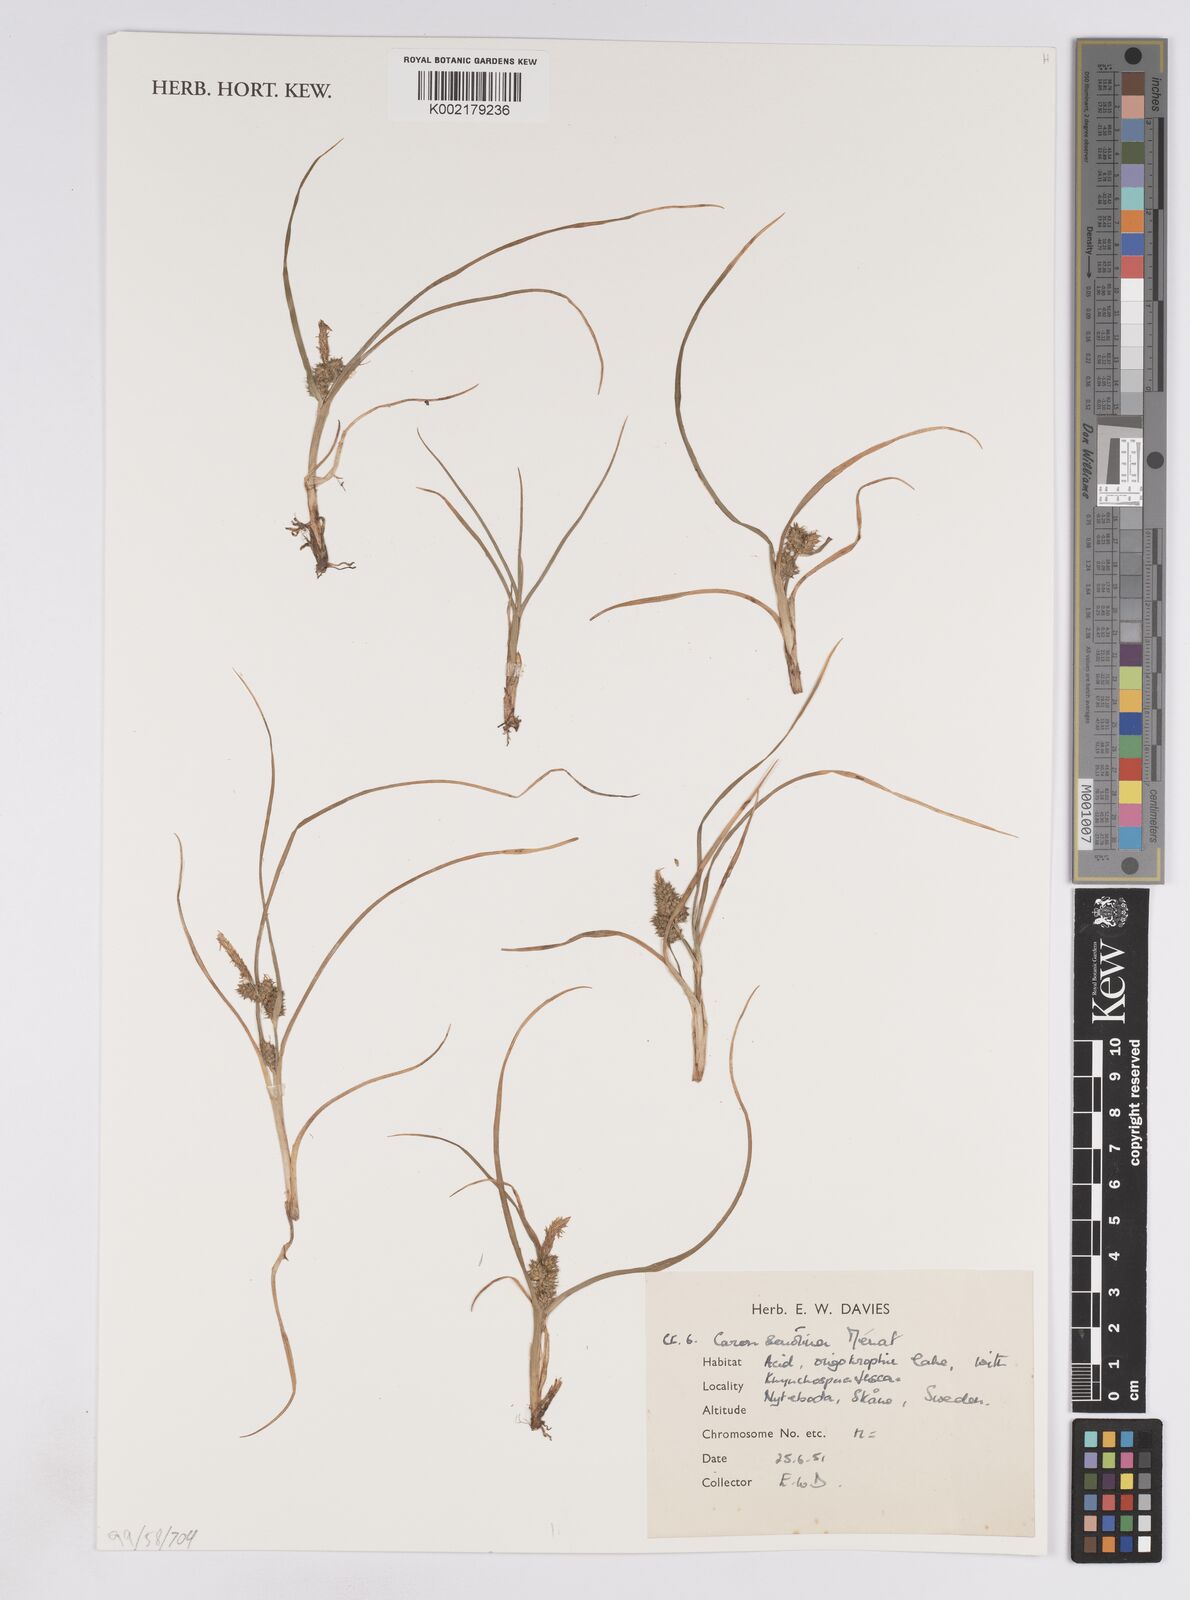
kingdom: Plantae
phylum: Tracheophyta
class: Liliopsida
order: Poales
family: Cyperaceae
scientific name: Cyperaceae
